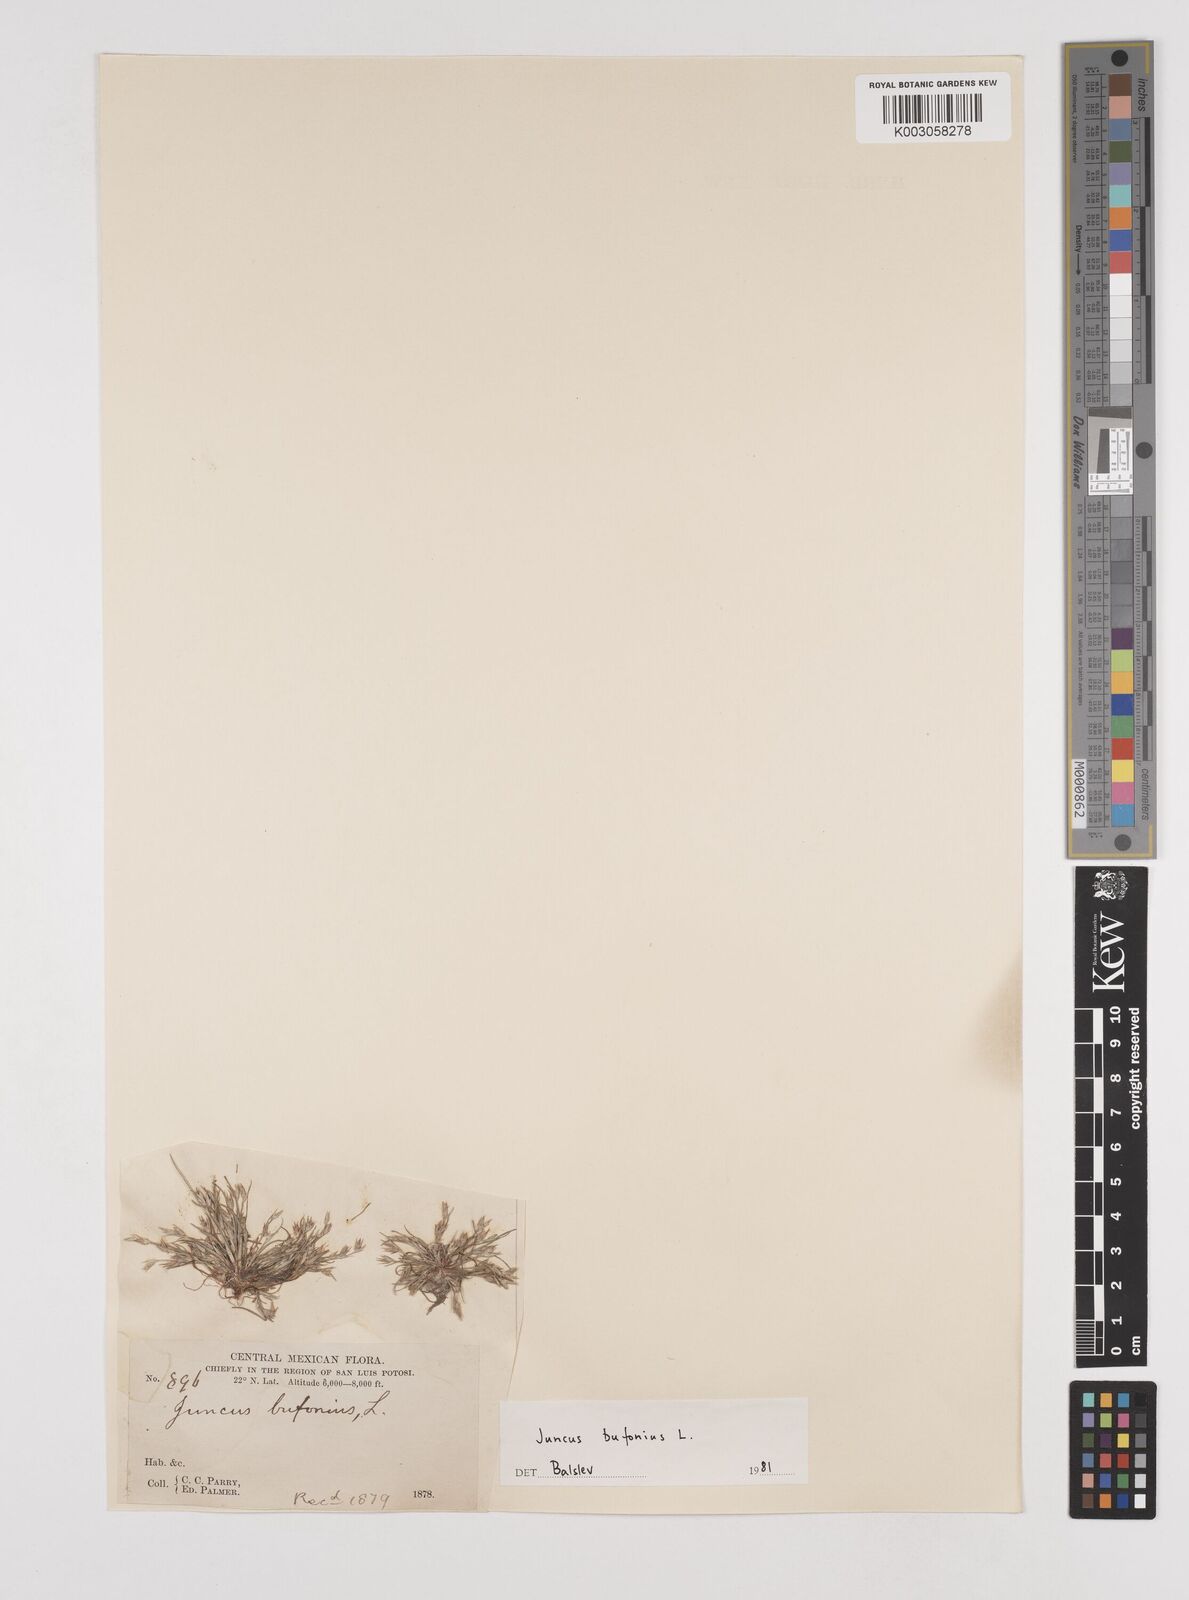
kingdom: Plantae
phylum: Tracheophyta
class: Liliopsida
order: Poales
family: Juncaceae
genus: Juncus
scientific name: Juncus bufonius
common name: Toad rush
